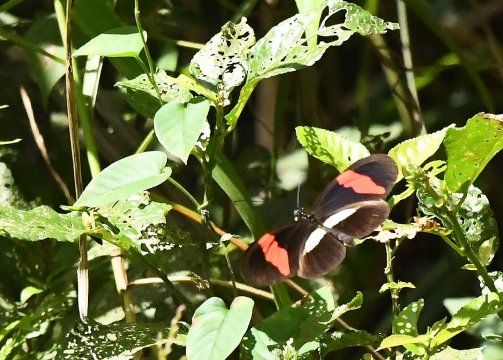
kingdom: Animalia
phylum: Arthropoda
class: Insecta
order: Lepidoptera
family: Nymphalidae
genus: Heliconius
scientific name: Heliconius erato
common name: Erato Heliconian
